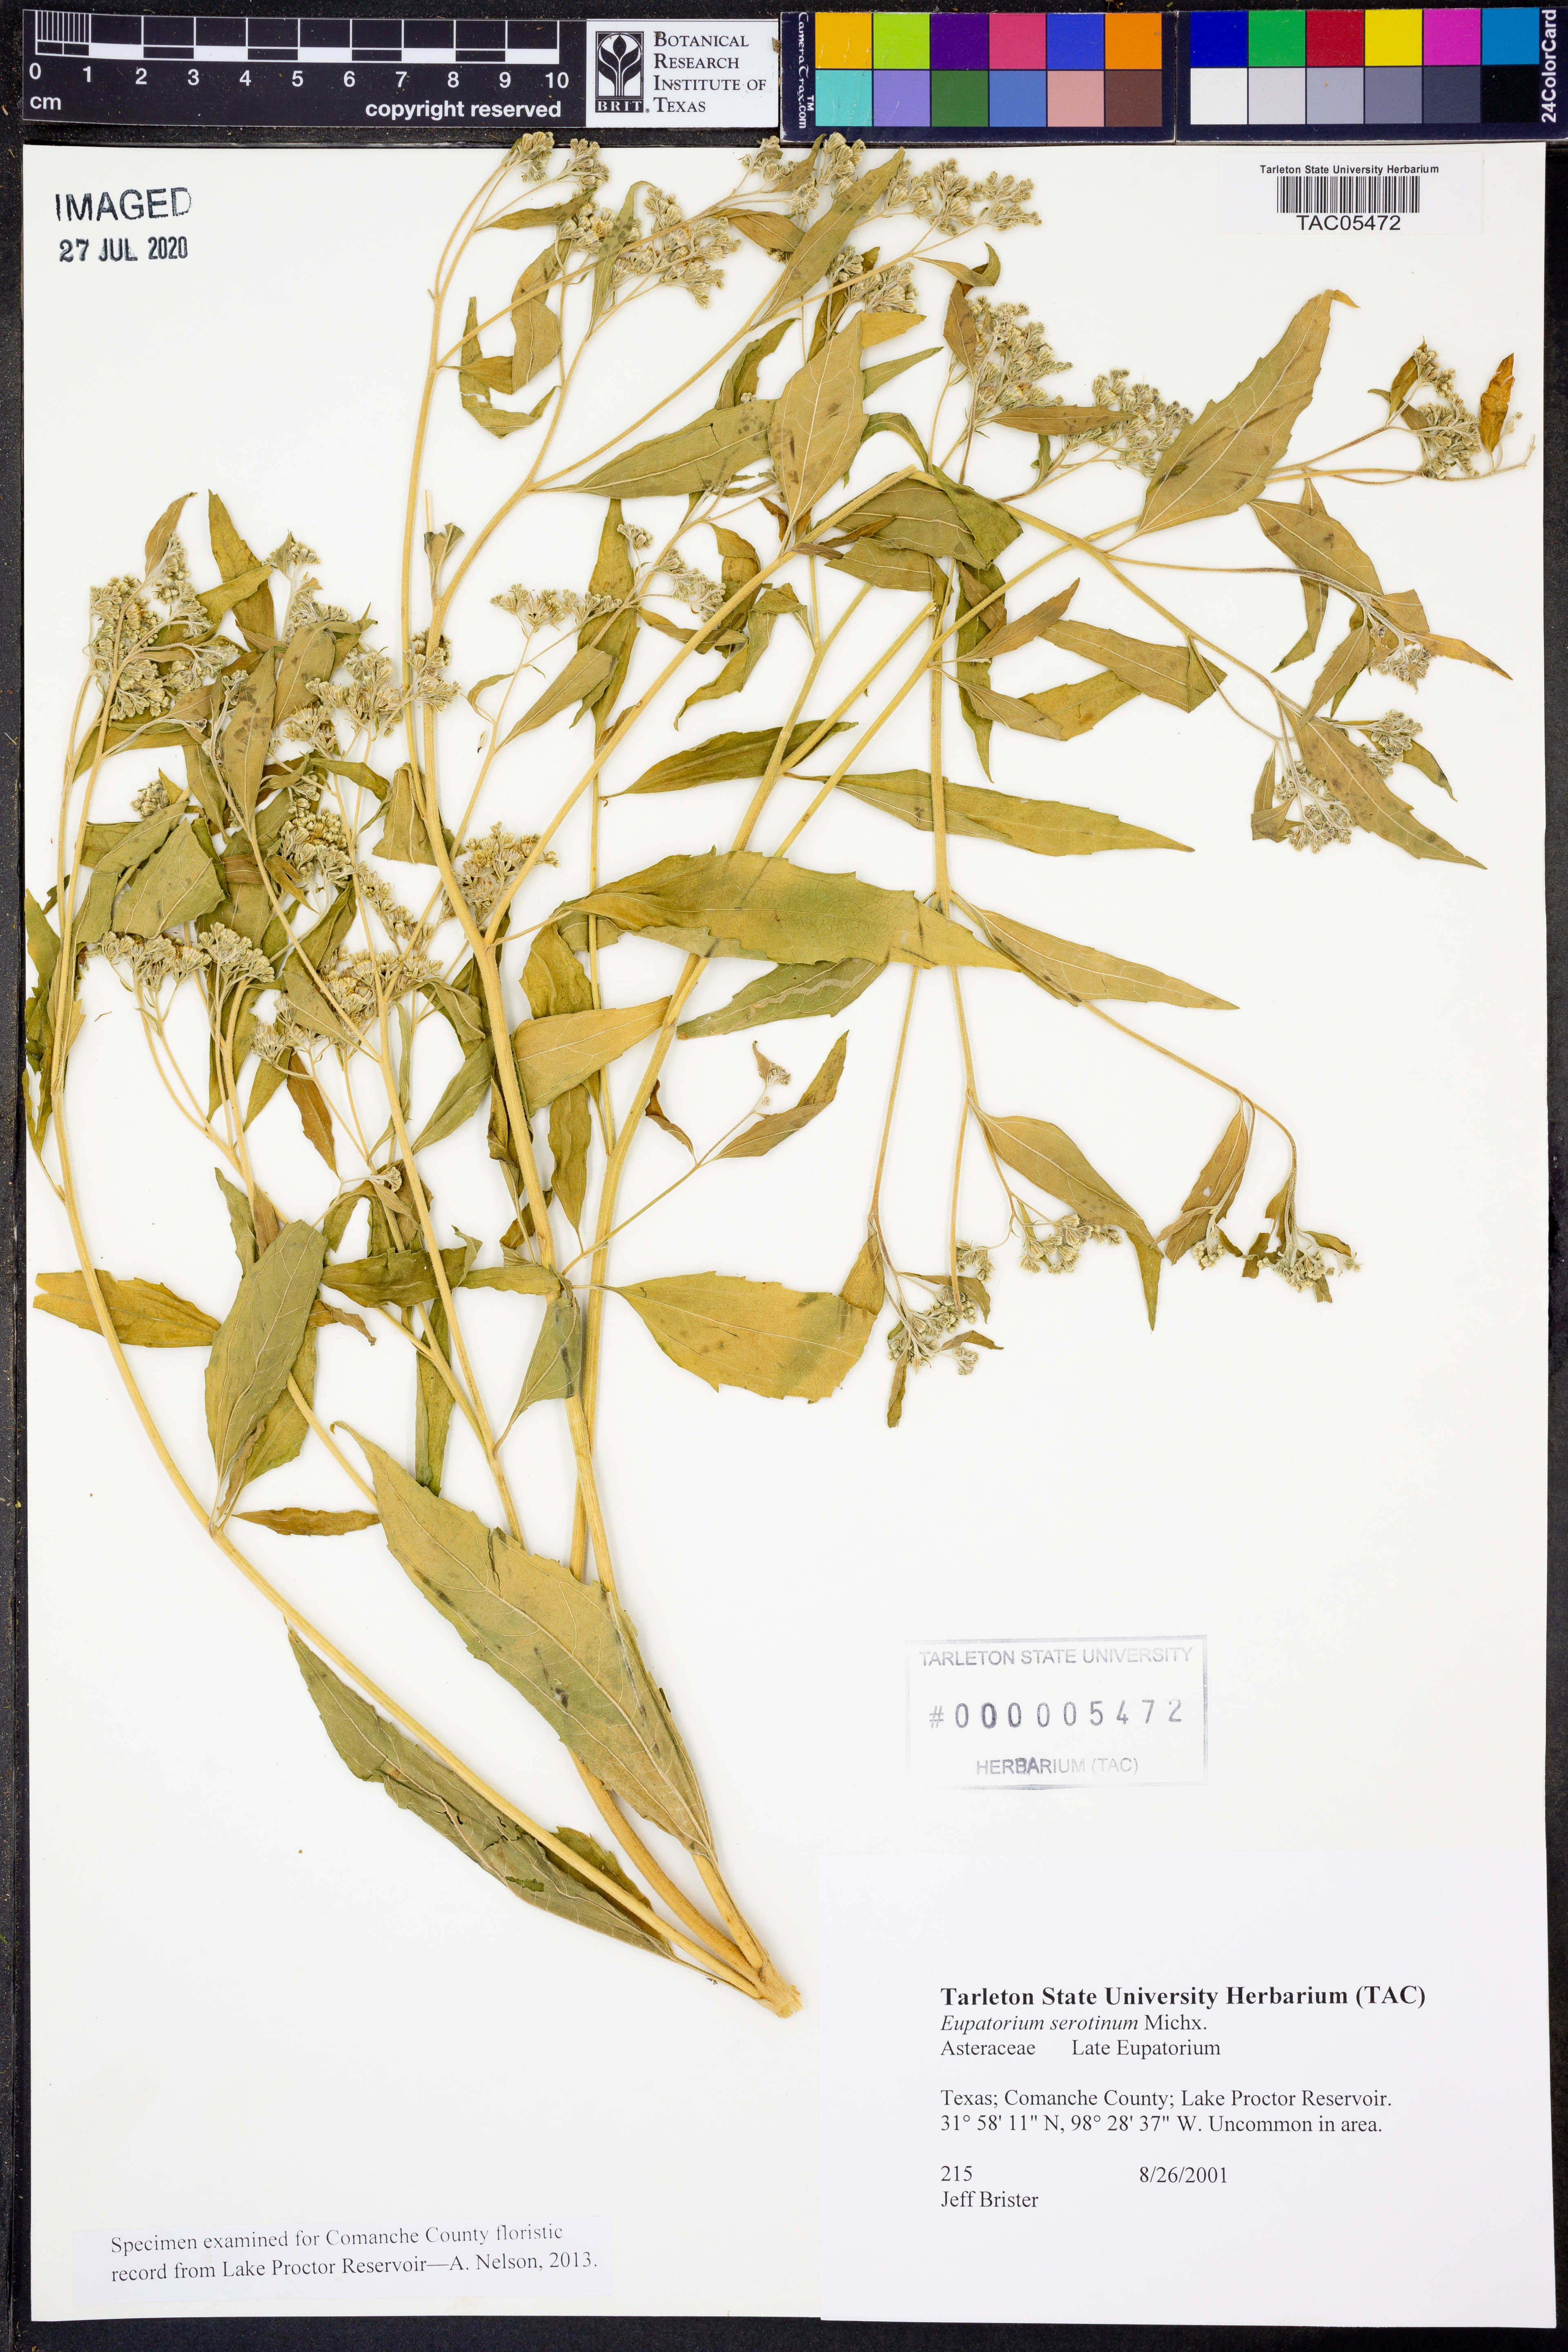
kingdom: Plantae
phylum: Tracheophyta
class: Magnoliopsida
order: Asterales
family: Asteraceae
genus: Eupatorium
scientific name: Eupatorium serotinum
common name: Late boneset
